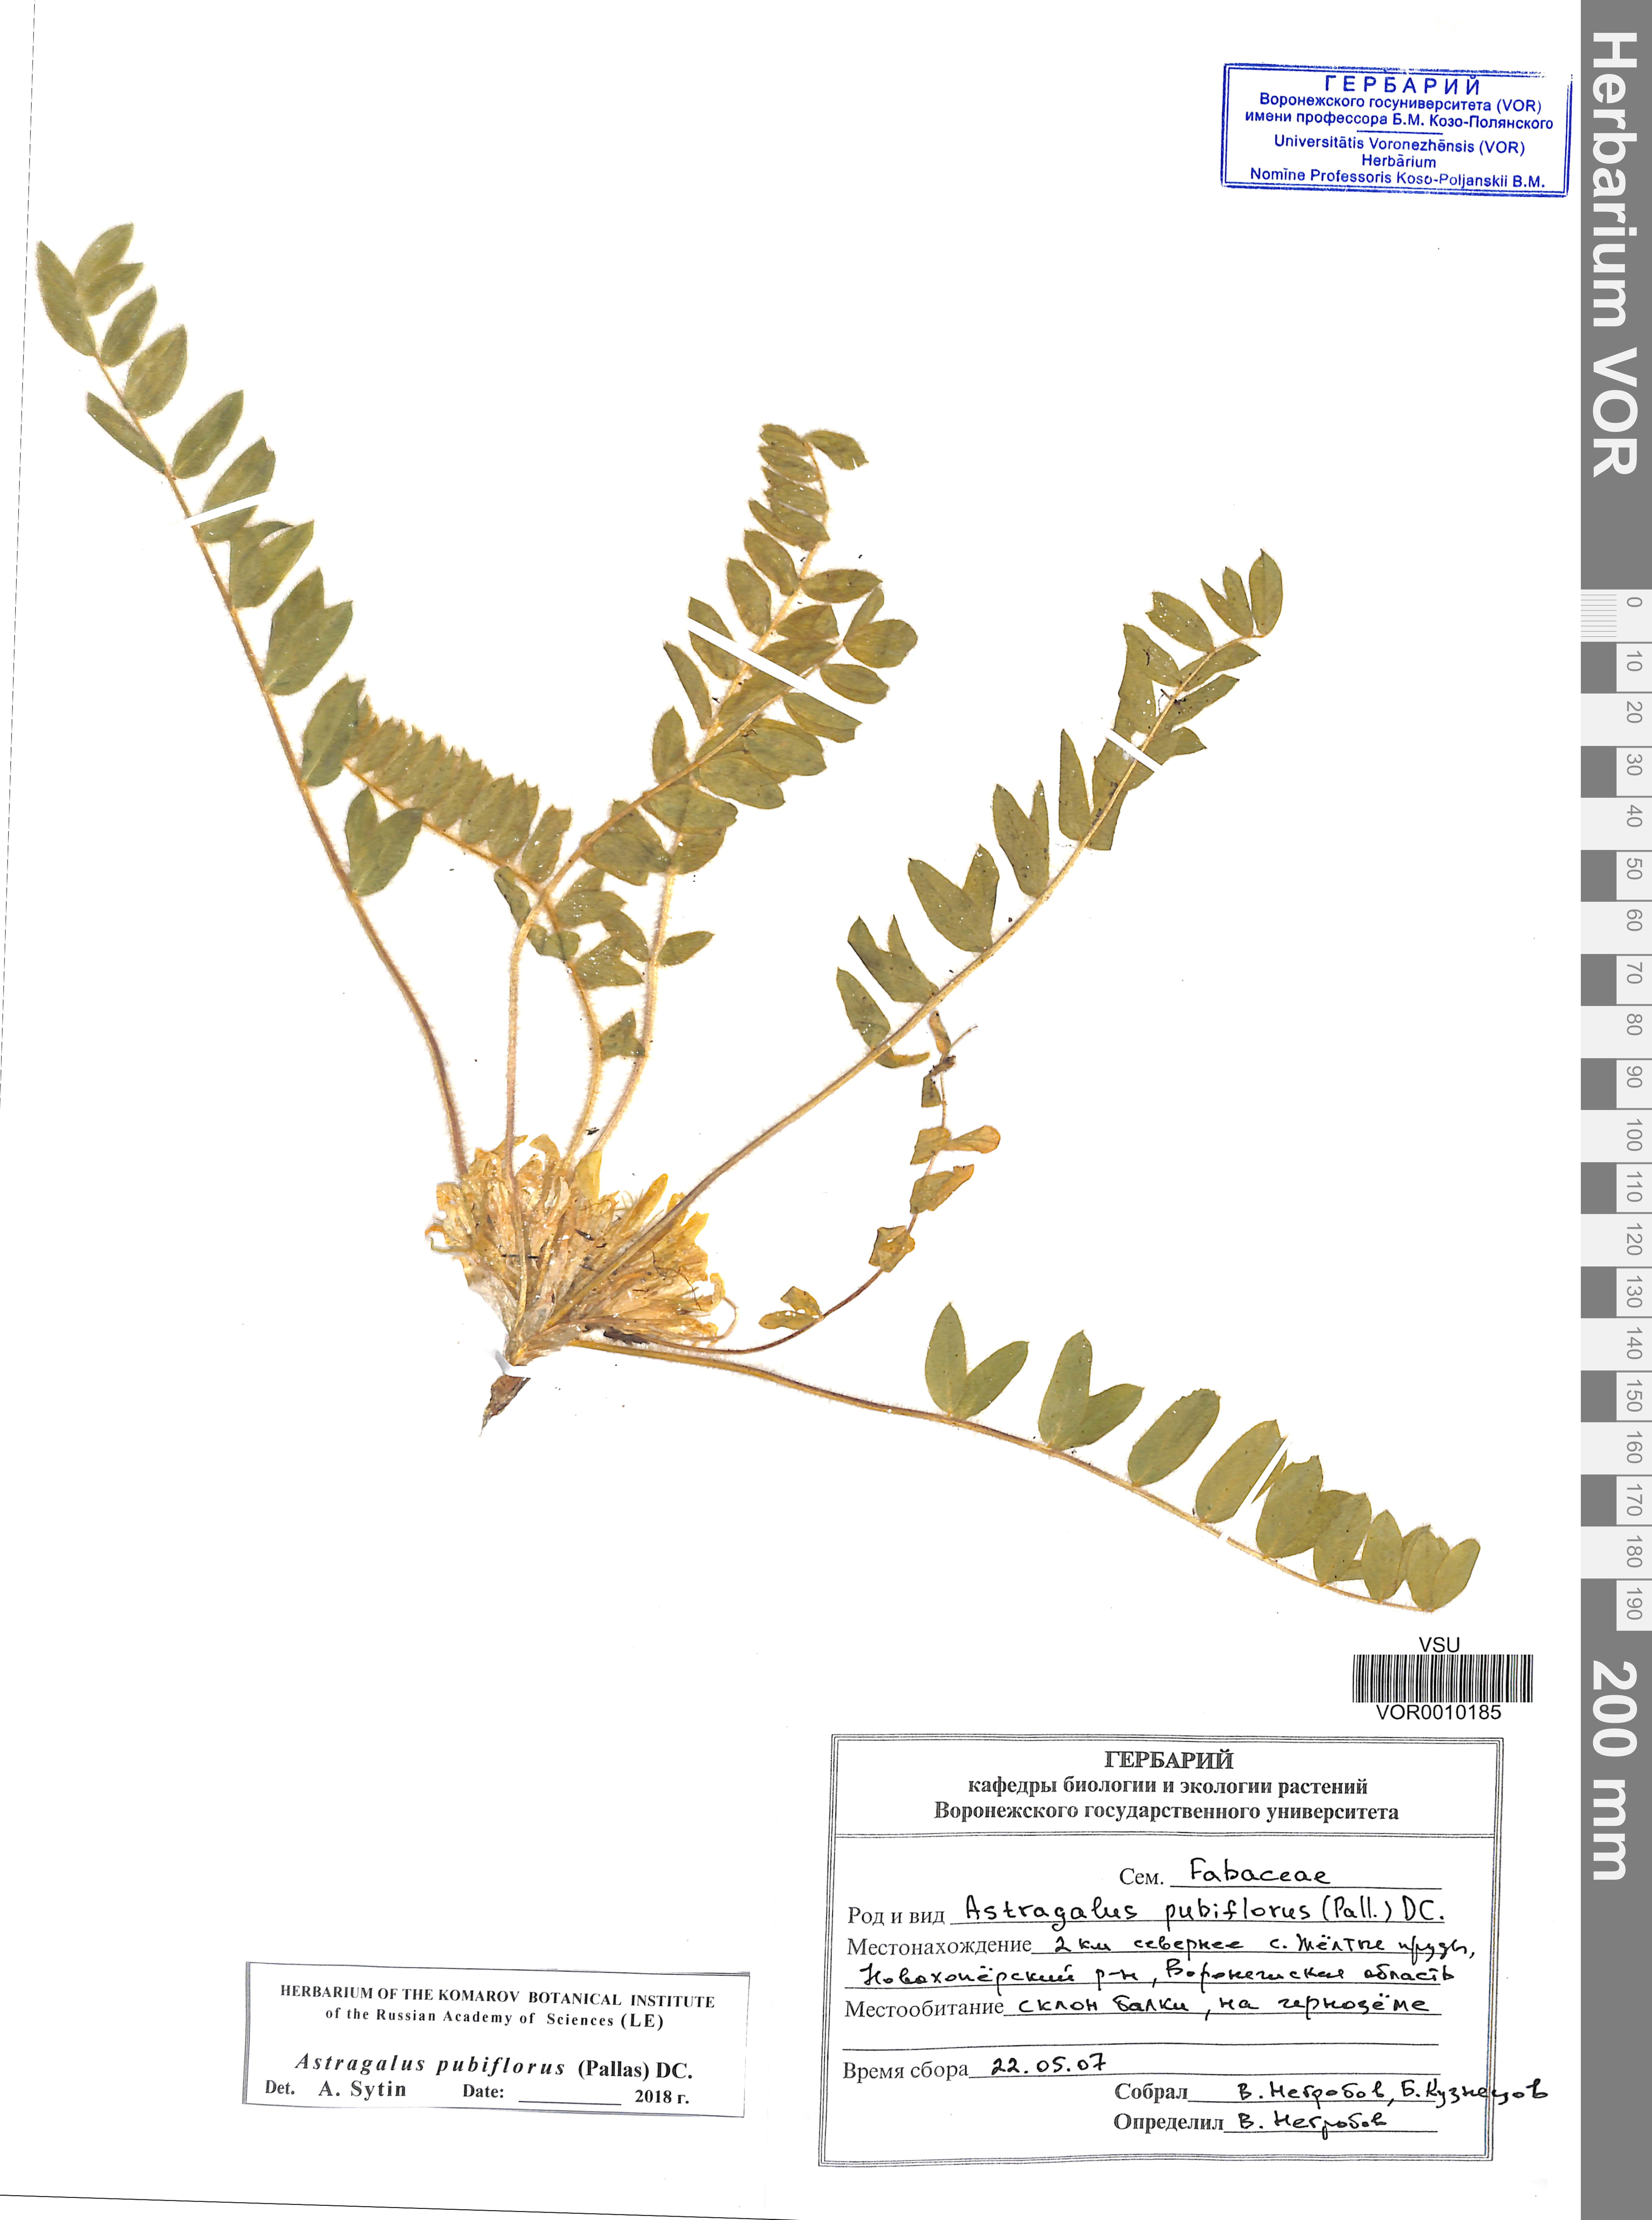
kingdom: Plantae
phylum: Tracheophyta
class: Magnoliopsida
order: Fabales
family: Fabaceae
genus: Astragalus
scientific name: Astragalus exscapus
